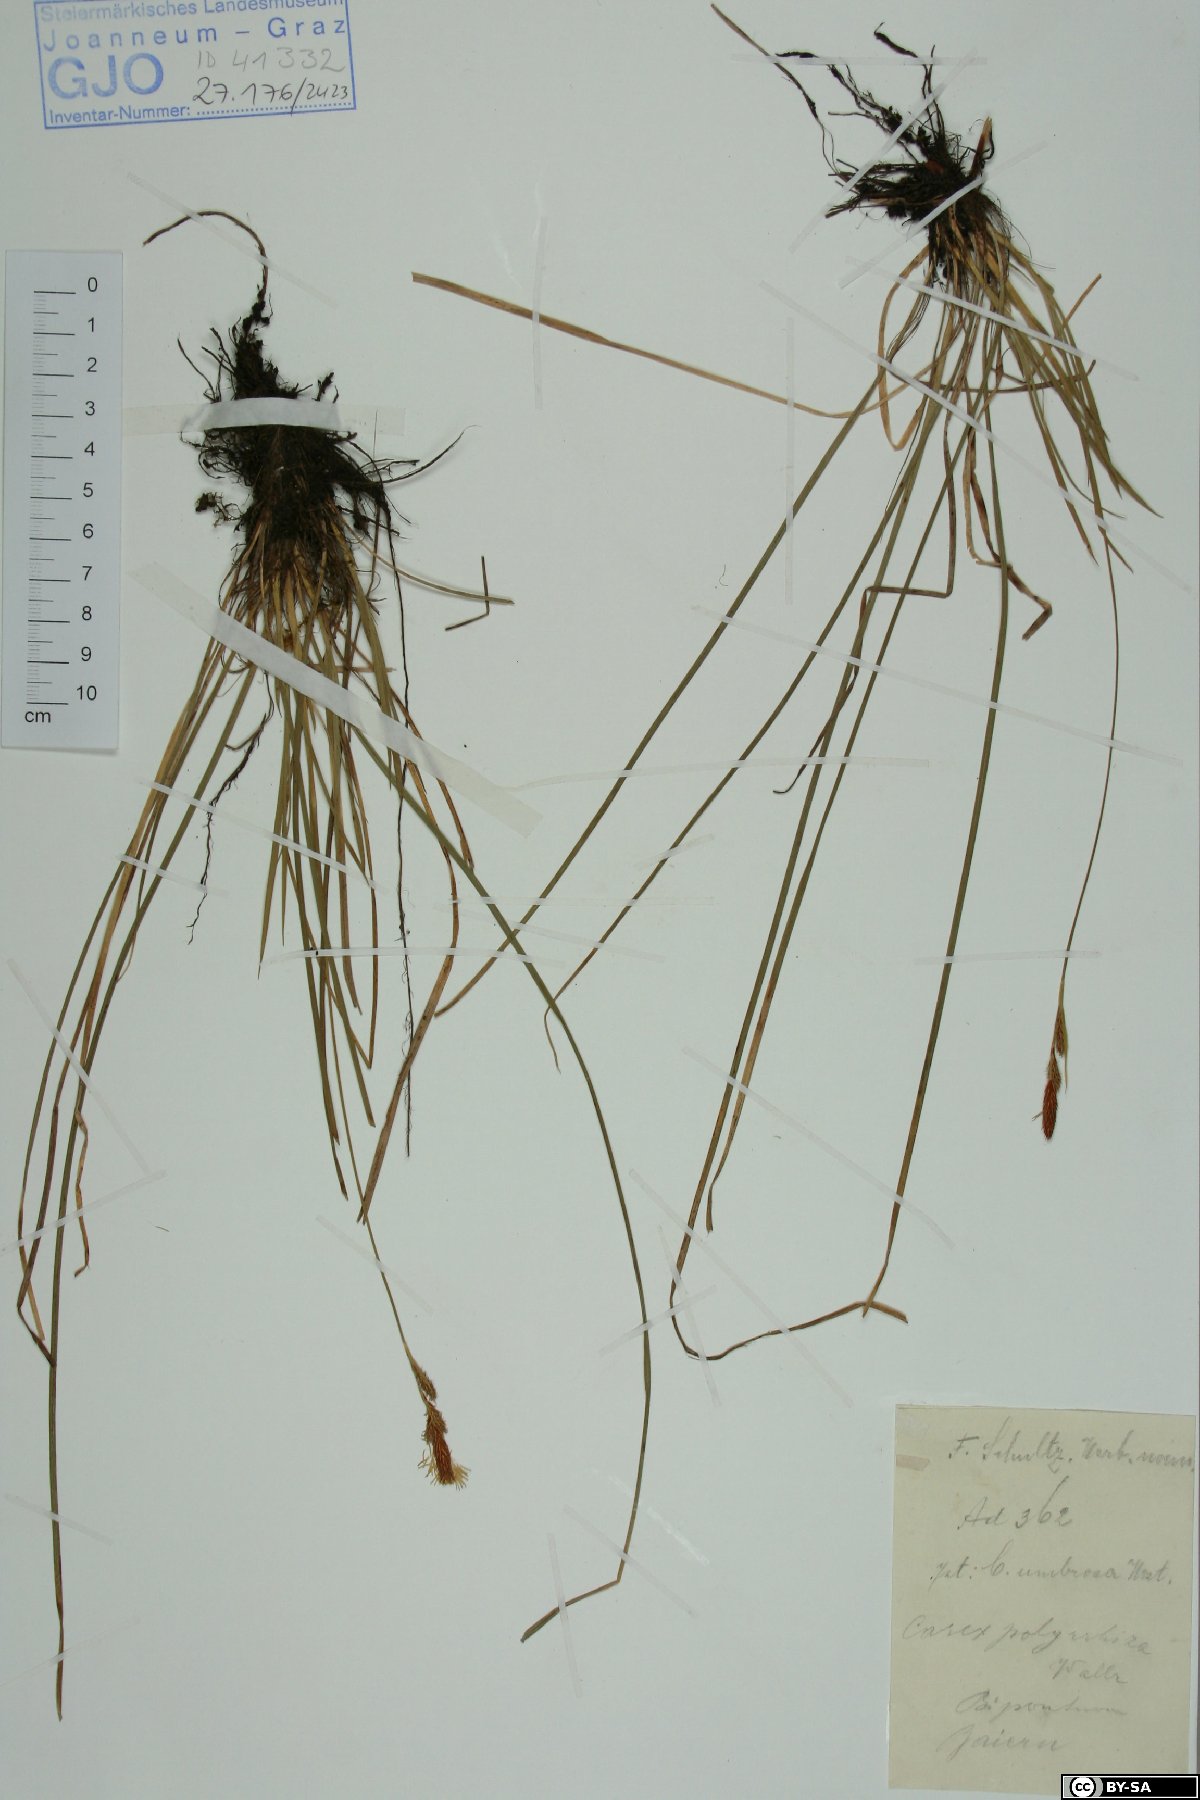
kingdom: Plantae
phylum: Tracheophyta
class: Liliopsida
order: Poales
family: Cyperaceae
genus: Carex
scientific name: Carex umbrosa
